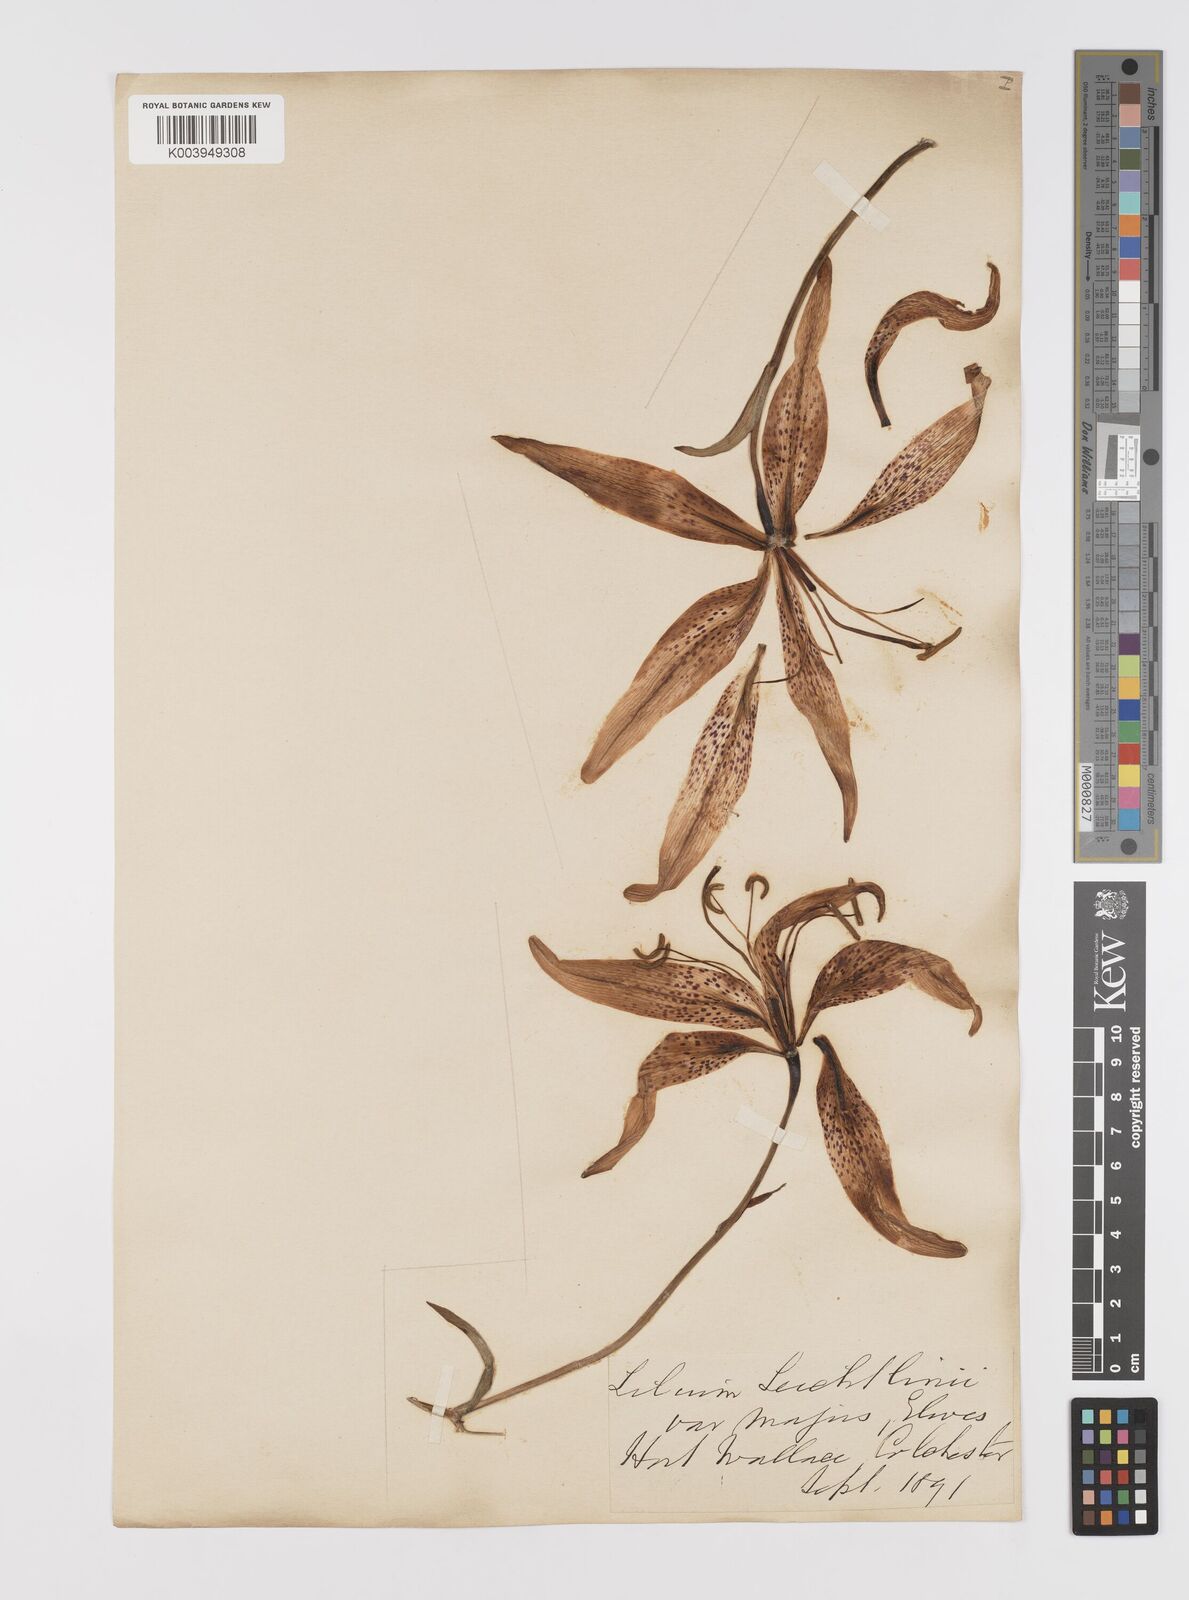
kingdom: Plantae
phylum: Tracheophyta
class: Liliopsida
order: Liliales
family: Liliaceae
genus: Lilium
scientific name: Lilium leichtlinii
